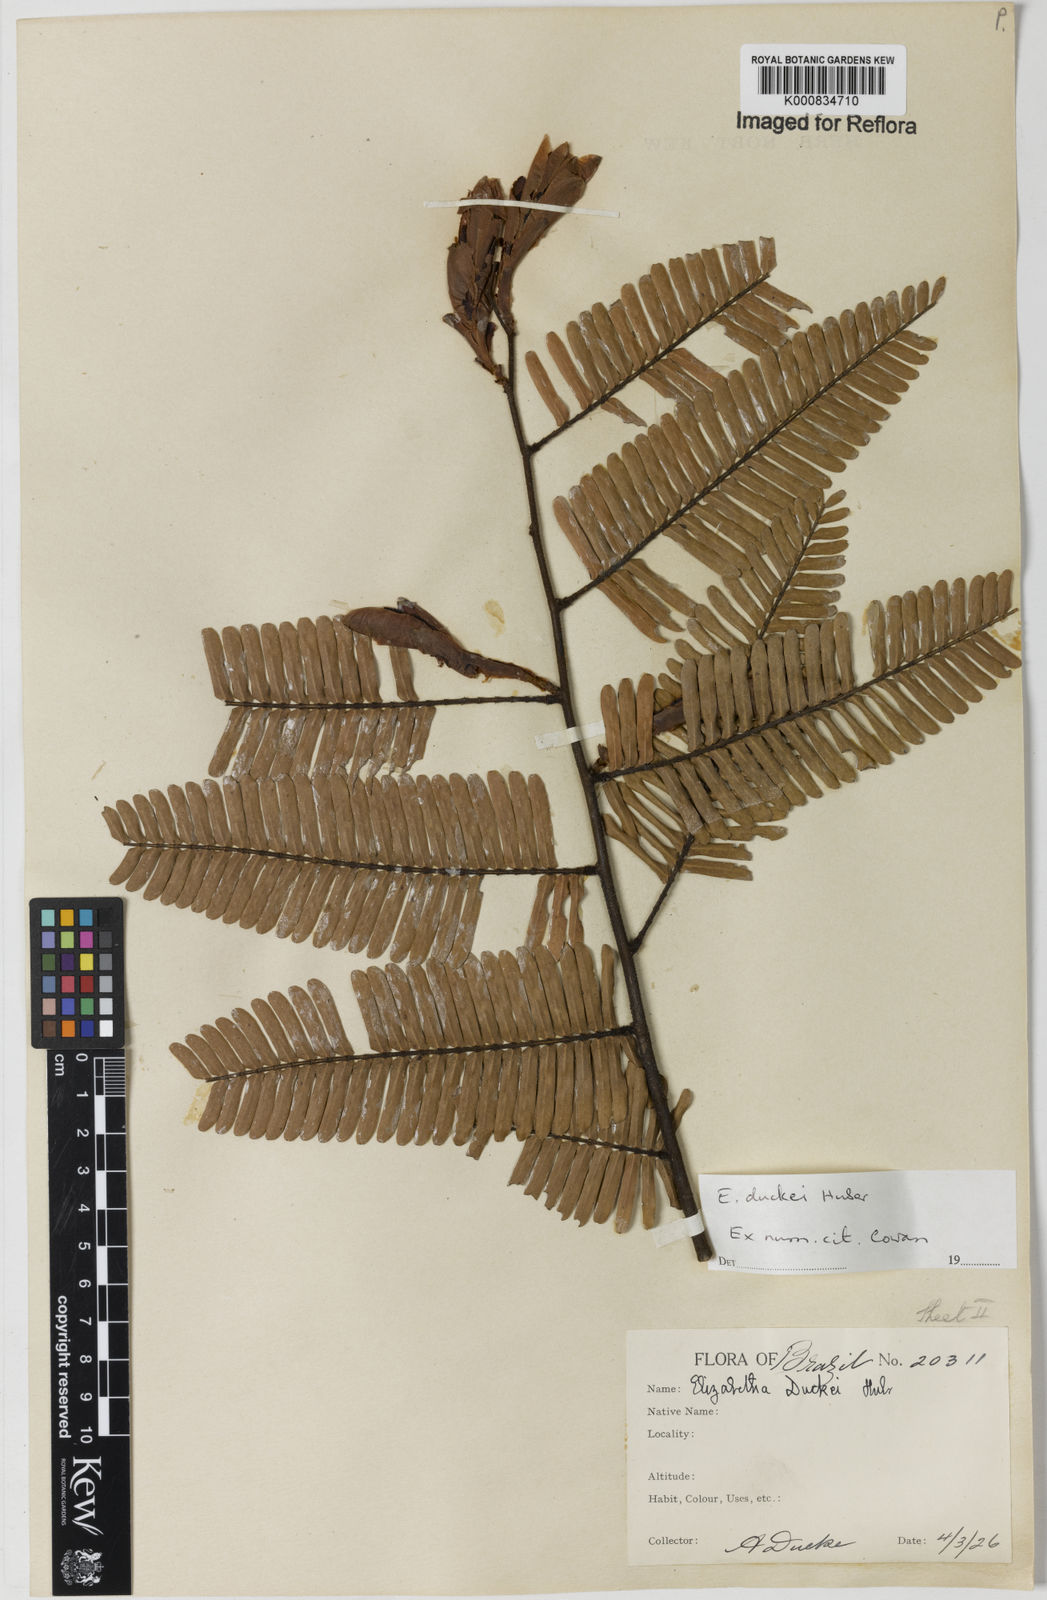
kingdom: Plantae
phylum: Tracheophyta
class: Magnoliopsida
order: Fabales
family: Fabaceae
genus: Paloue
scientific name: Paloue duckei
